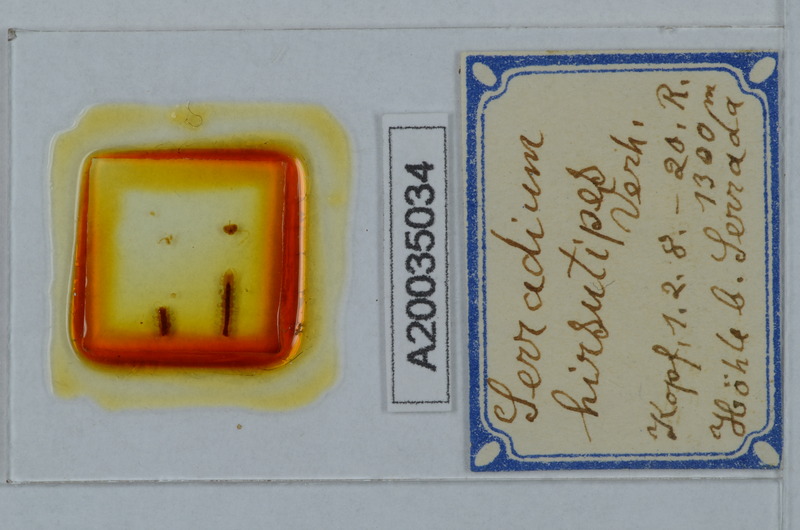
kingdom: Animalia
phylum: Arthropoda
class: Diplopoda
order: Polydesmida
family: Polydesmidae
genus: Serradium
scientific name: Serradium hirsutipes
